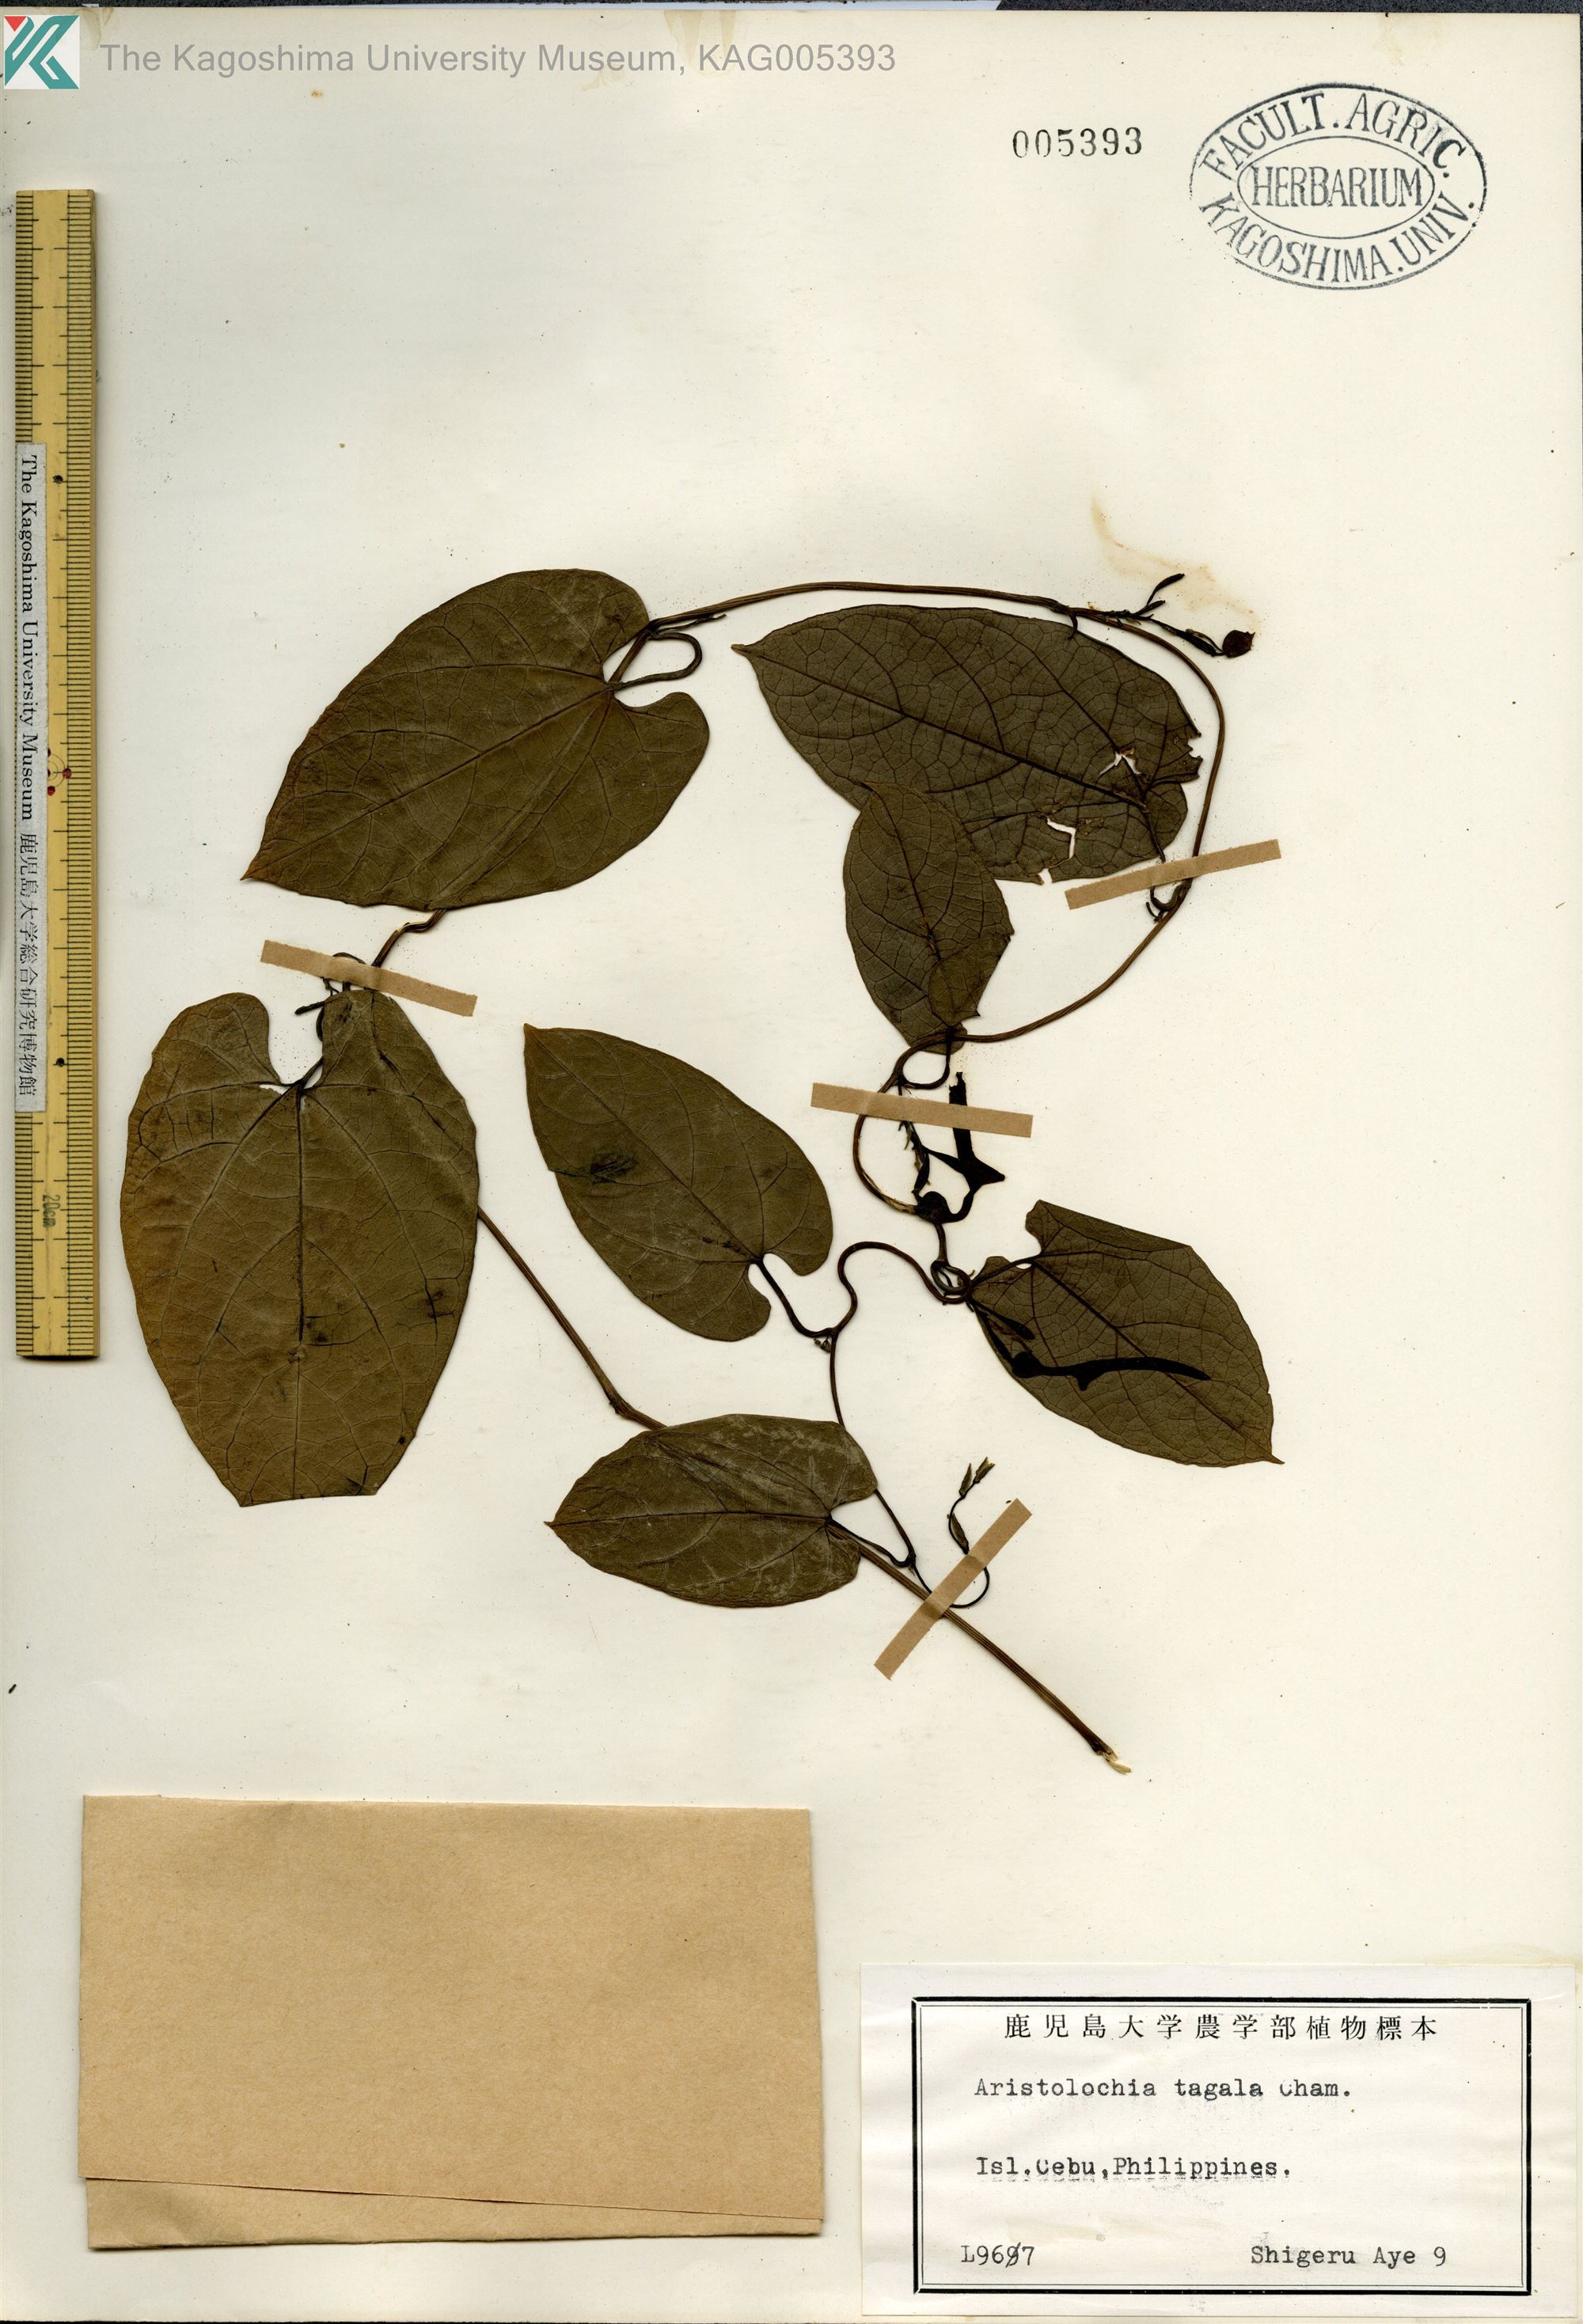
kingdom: Plantae
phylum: Tracheophyta
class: Magnoliopsida
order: Piperales
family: Aristolochiaceae
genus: Aristolochia
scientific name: Aristolochia acuminata
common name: Indian birthwort
